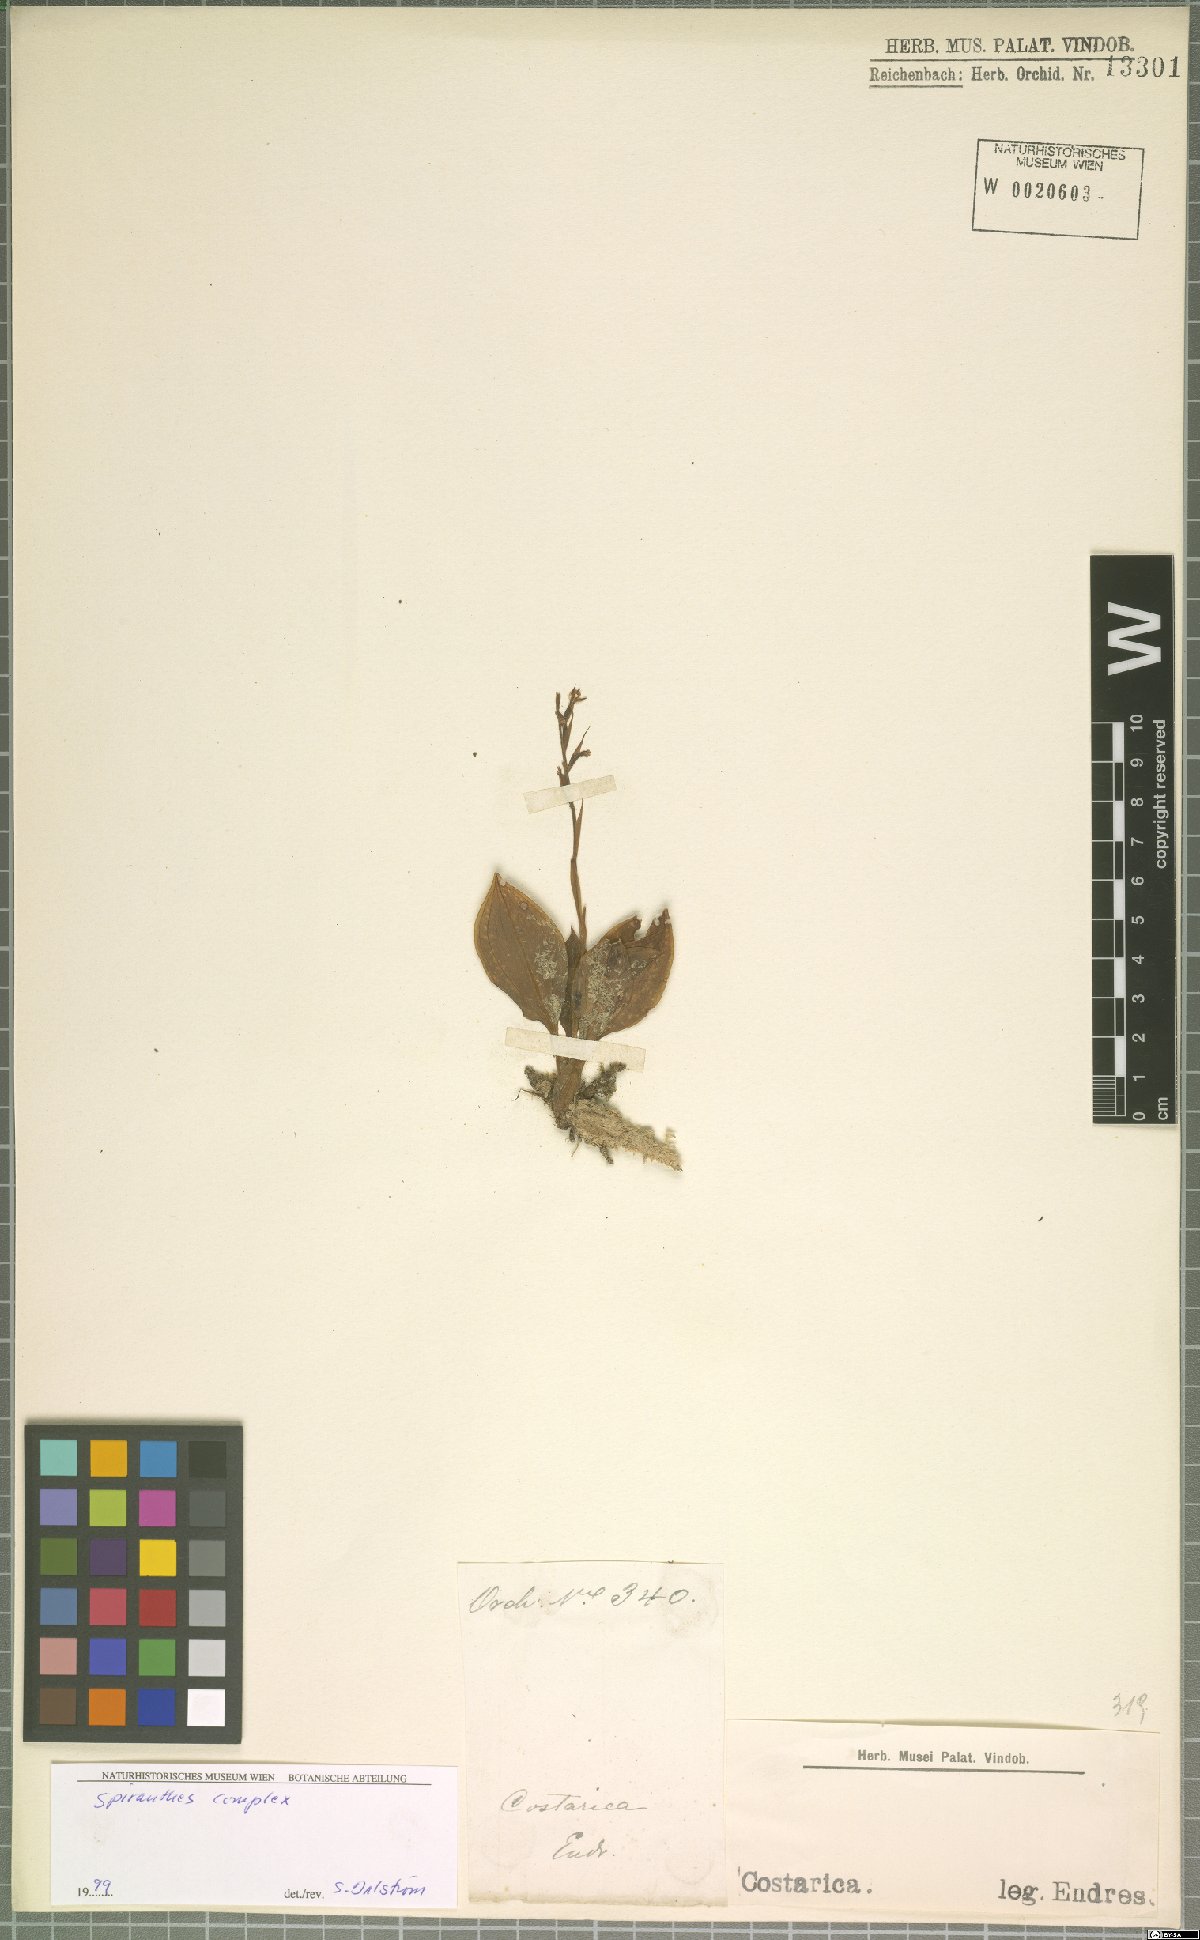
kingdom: Plantae
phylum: Tracheophyta
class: Liliopsida
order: Asparagales
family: Orchidaceae
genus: Spiranthes
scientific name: Spiranthes
